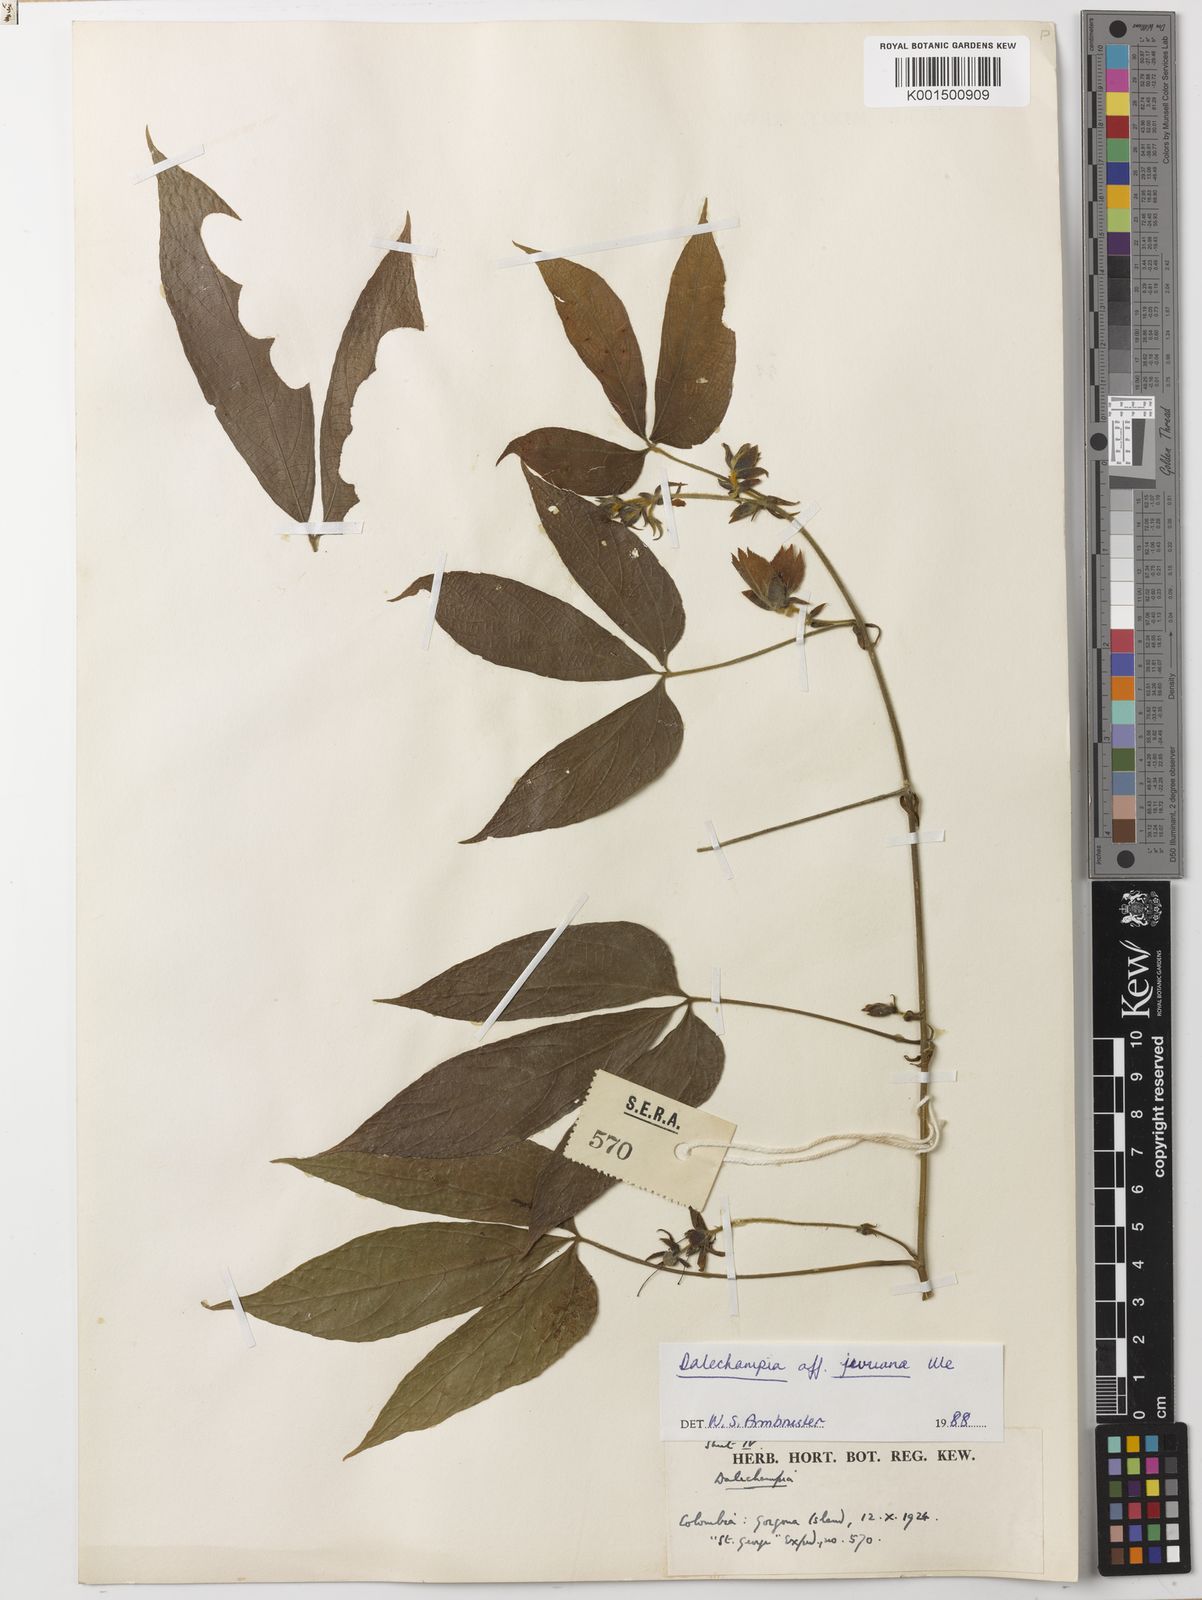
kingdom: Plantae
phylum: Tracheophyta
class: Magnoliopsida
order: Malpighiales
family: Euphorbiaceae
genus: Dalechampia
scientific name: Dalechampia juruana
